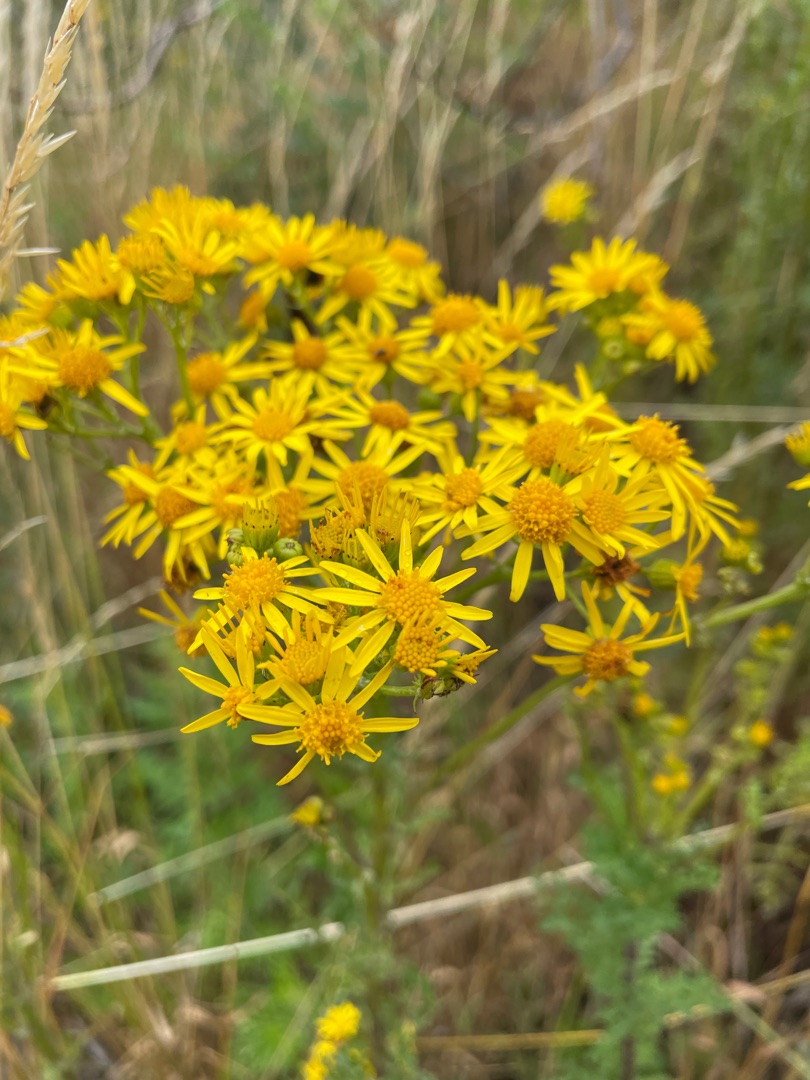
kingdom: Plantae
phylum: Tracheophyta
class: Magnoliopsida
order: Asterales
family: Asteraceae
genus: Jacobaea
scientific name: Jacobaea vulgaris
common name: Eng-brandbæger
